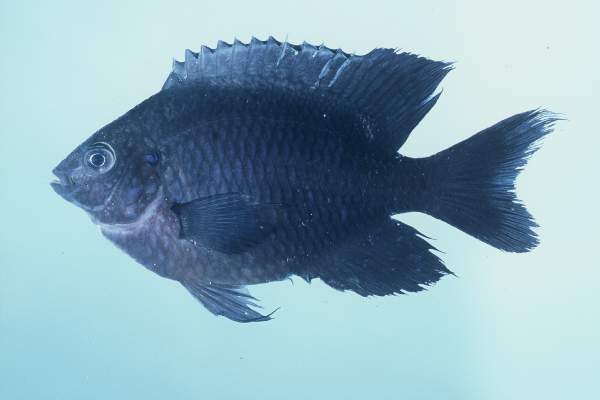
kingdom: Animalia
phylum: Chordata
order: Perciformes
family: Pomacentridae
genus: Pomacentrus
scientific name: Pomacentrus agassizii
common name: Creole damsel
